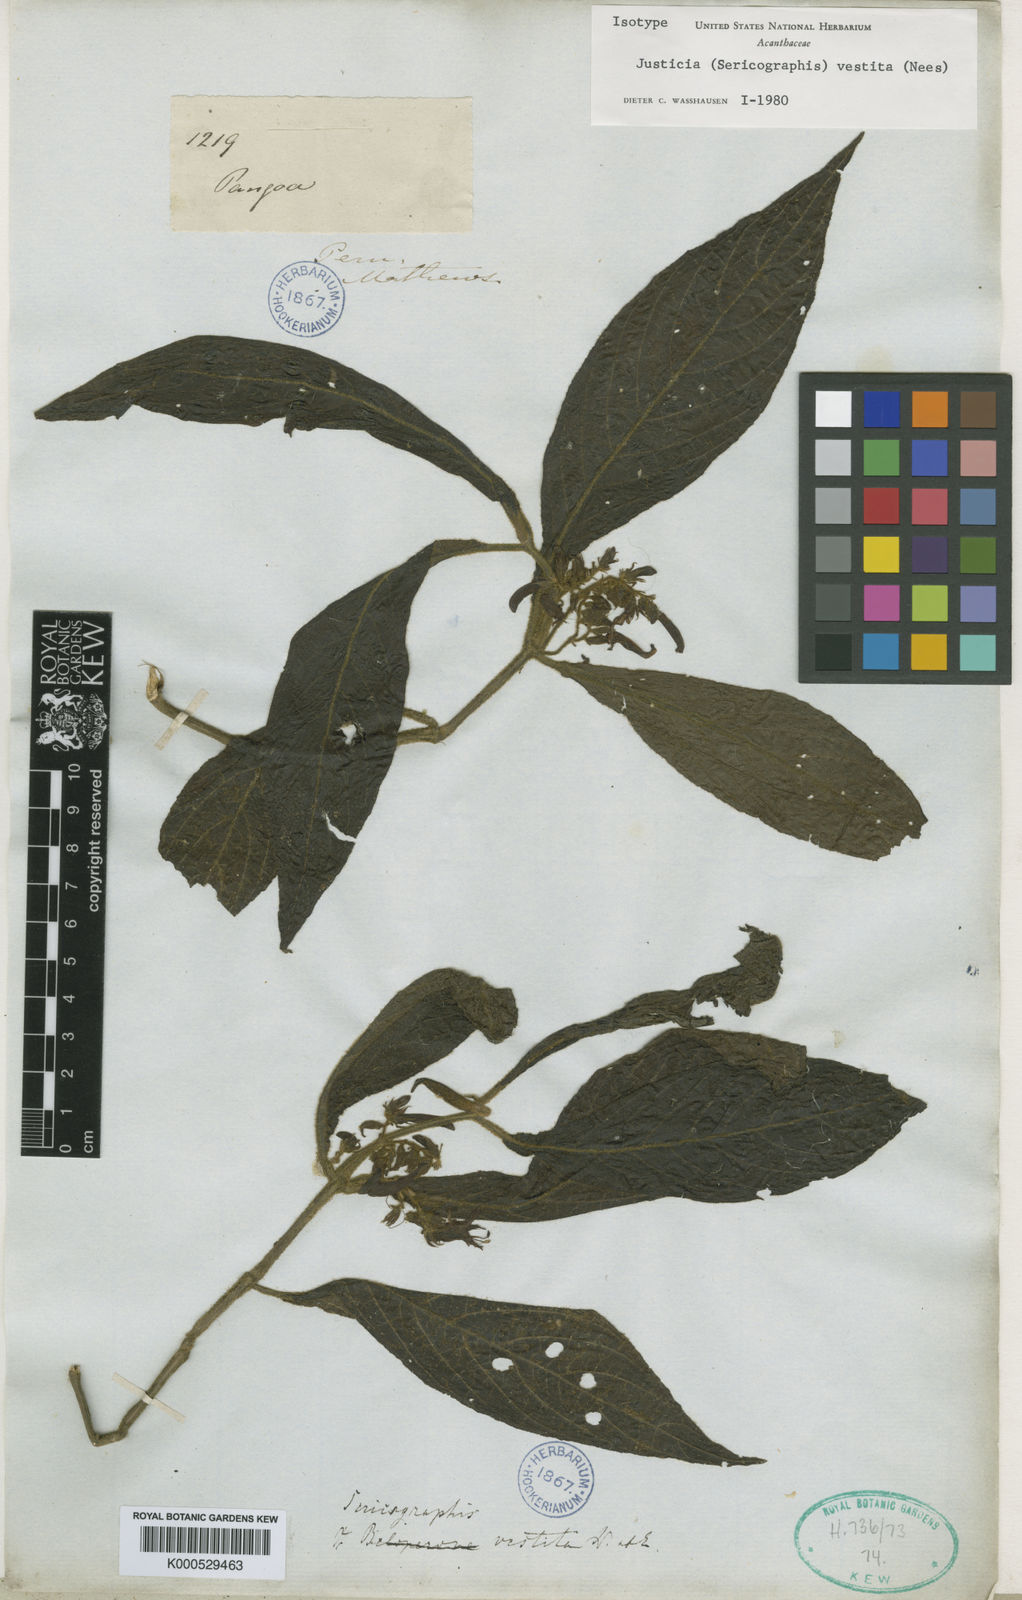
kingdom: Plantae
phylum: Tracheophyta
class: Magnoliopsida
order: Lamiales
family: Acanthaceae
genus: Nelsonia
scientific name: Nelsonia canescens
